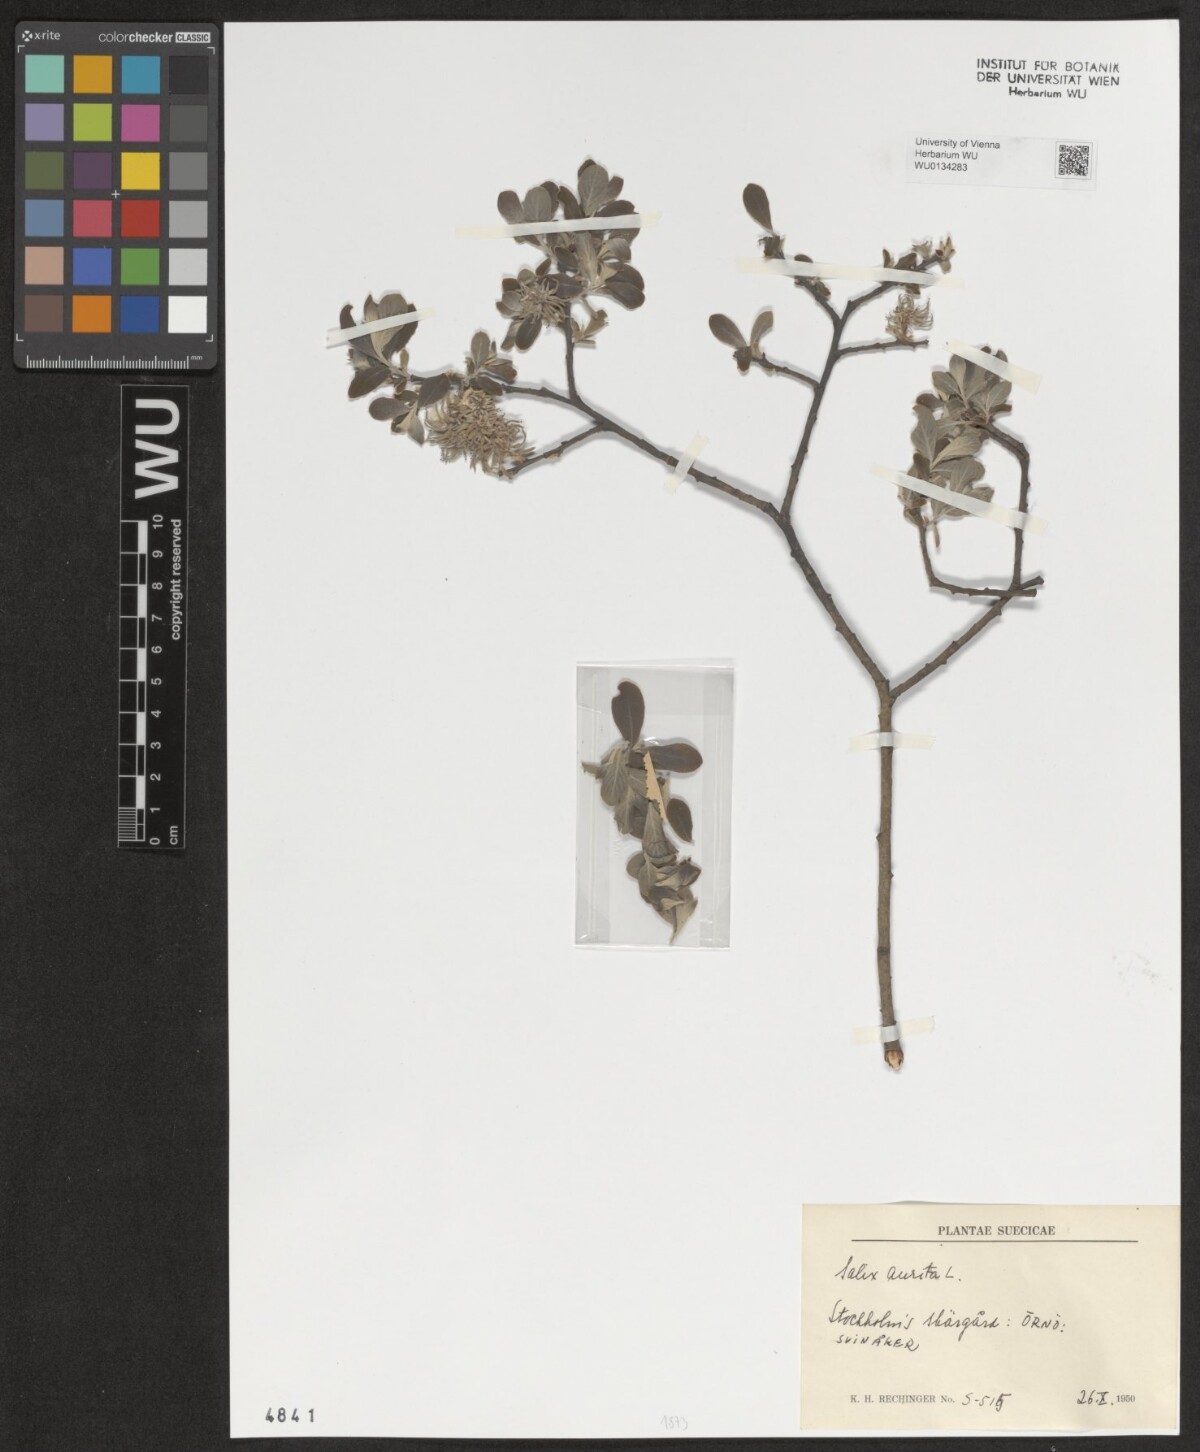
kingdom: Plantae
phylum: Tracheophyta
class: Magnoliopsida
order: Malpighiales
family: Salicaceae
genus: Salix
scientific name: Salix aurita
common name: Eared willow
